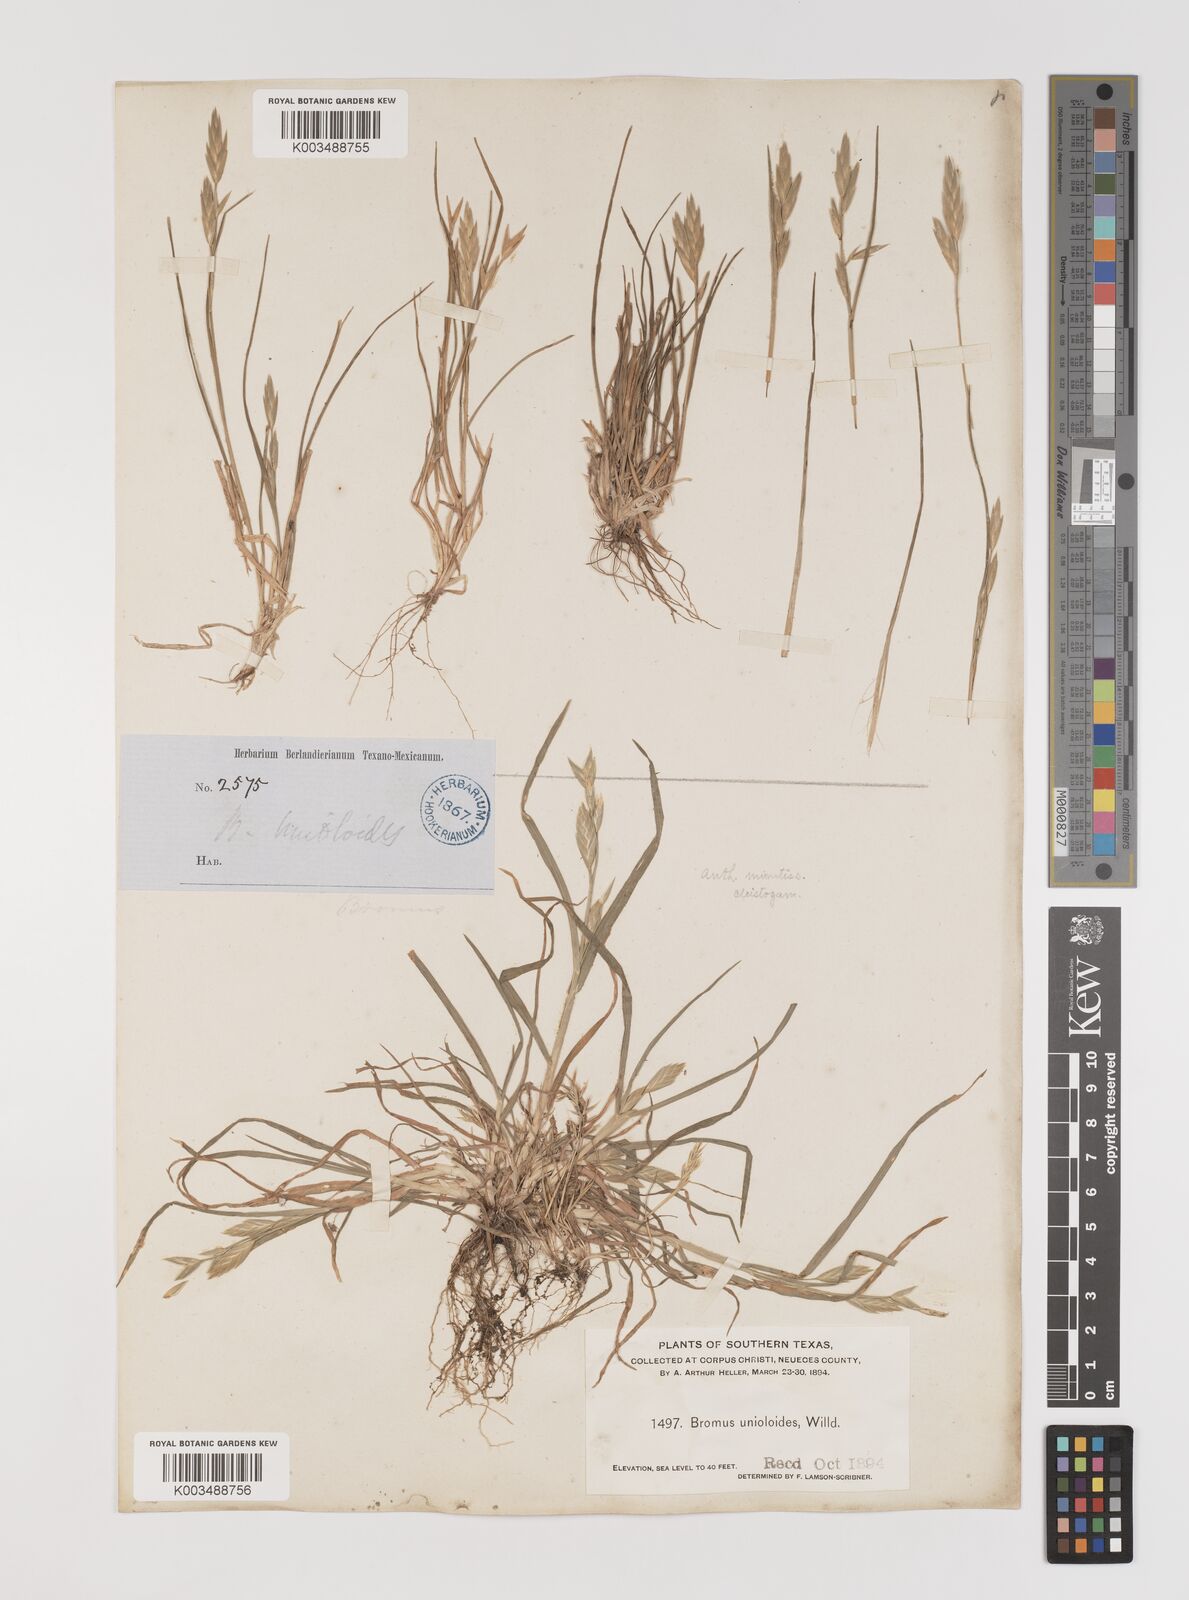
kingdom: Plantae
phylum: Tracheophyta
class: Liliopsida
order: Poales
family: Poaceae
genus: Bromus
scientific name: Bromus
